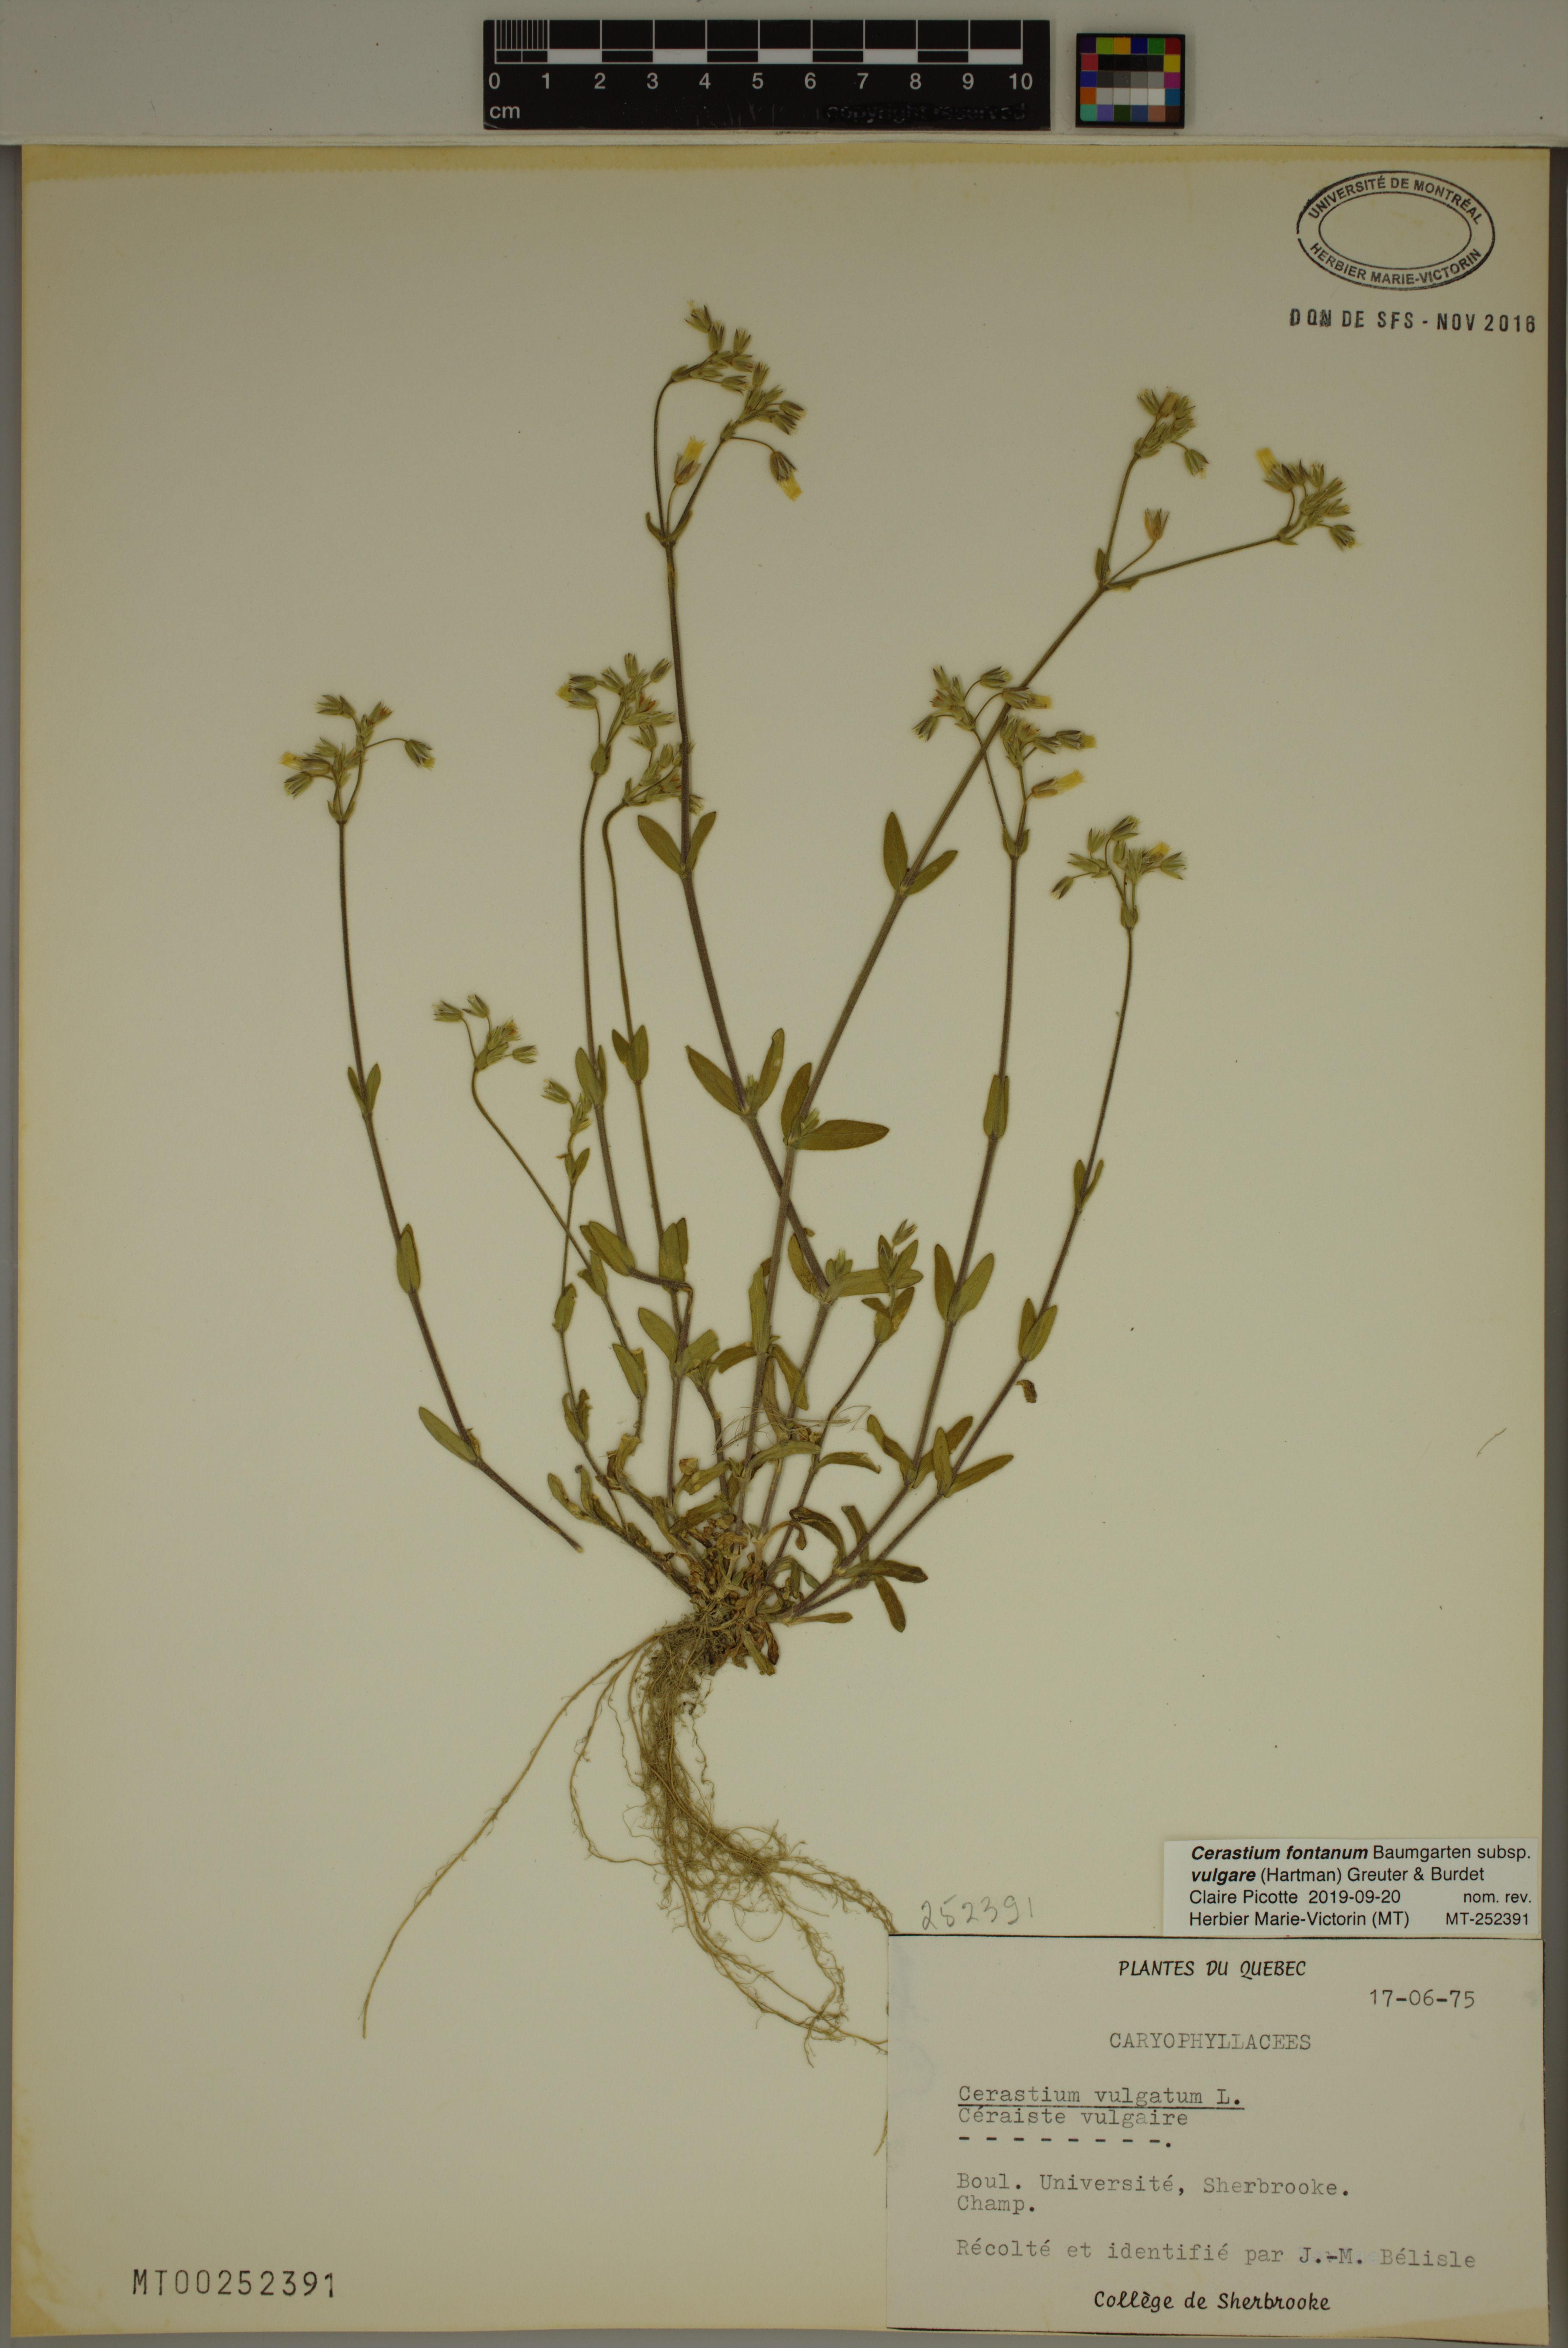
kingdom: Plantae
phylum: Tracheophyta
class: Magnoliopsida
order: Caryophyllales
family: Caryophyllaceae
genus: Cerastium
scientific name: Cerastium holosteoides
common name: Big chickweed
